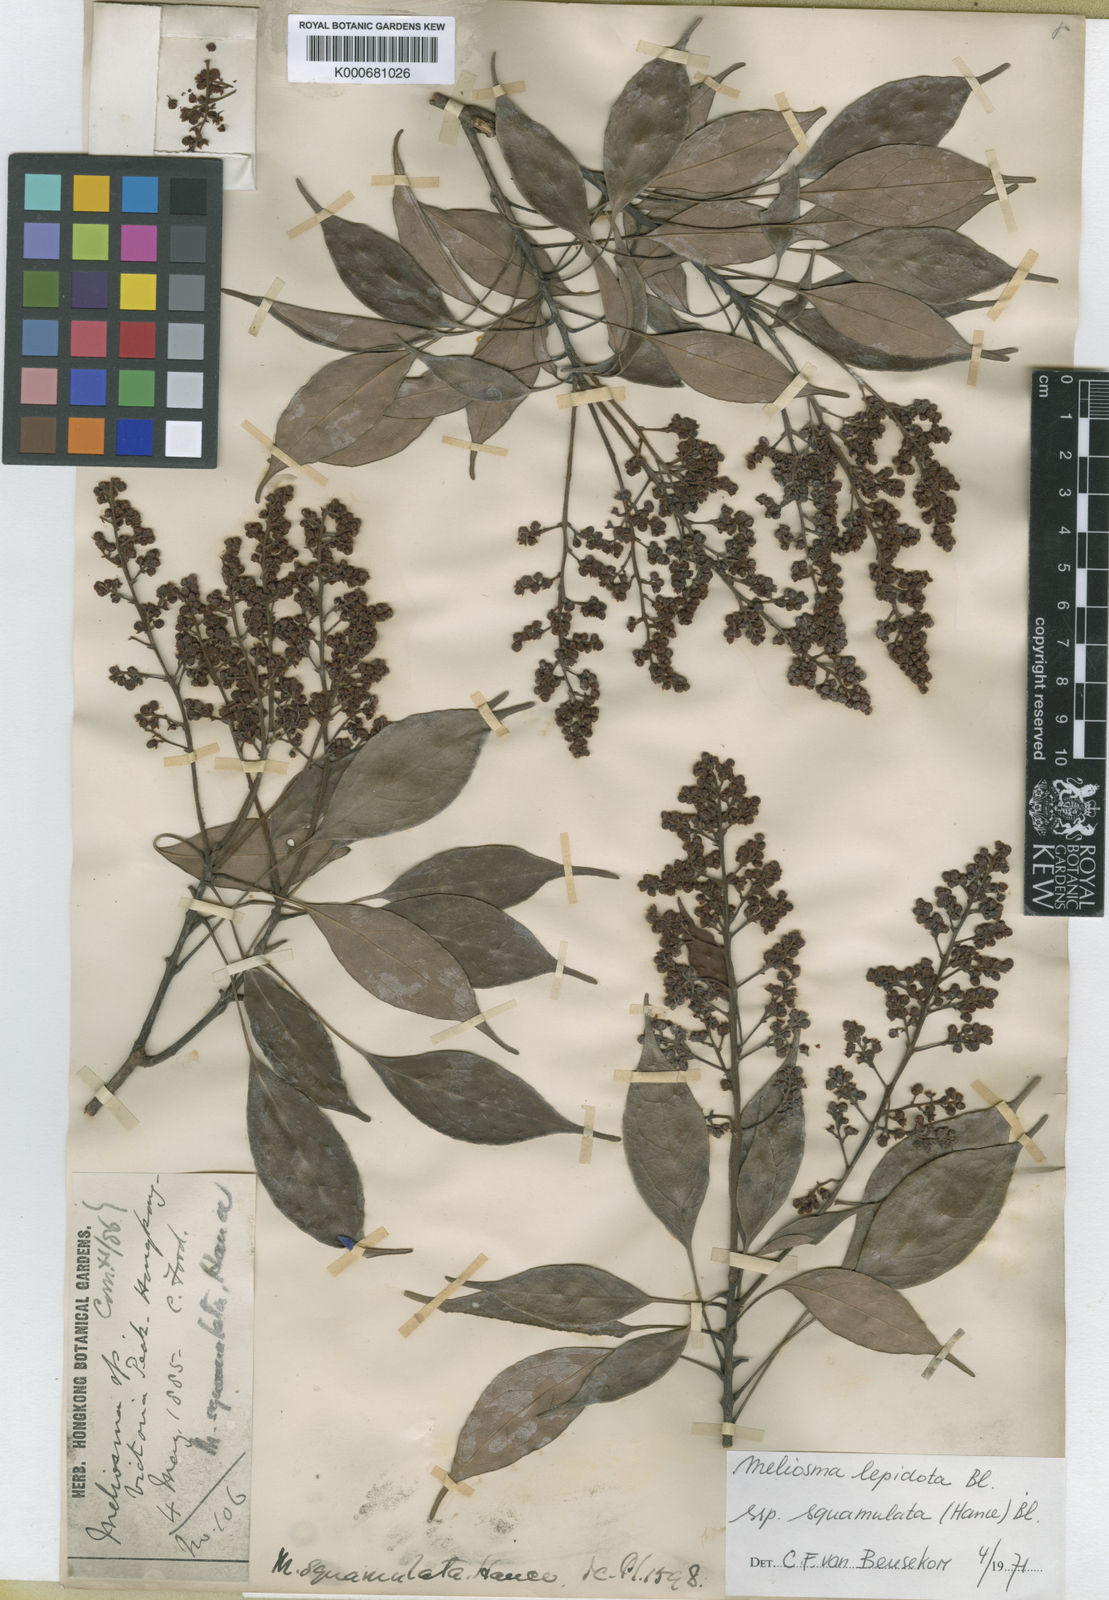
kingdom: Plantae
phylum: Tracheophyta
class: Magnoliopsida
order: Proteales
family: Sabiaceae
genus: Meliosma
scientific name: Meliosma squamulata
